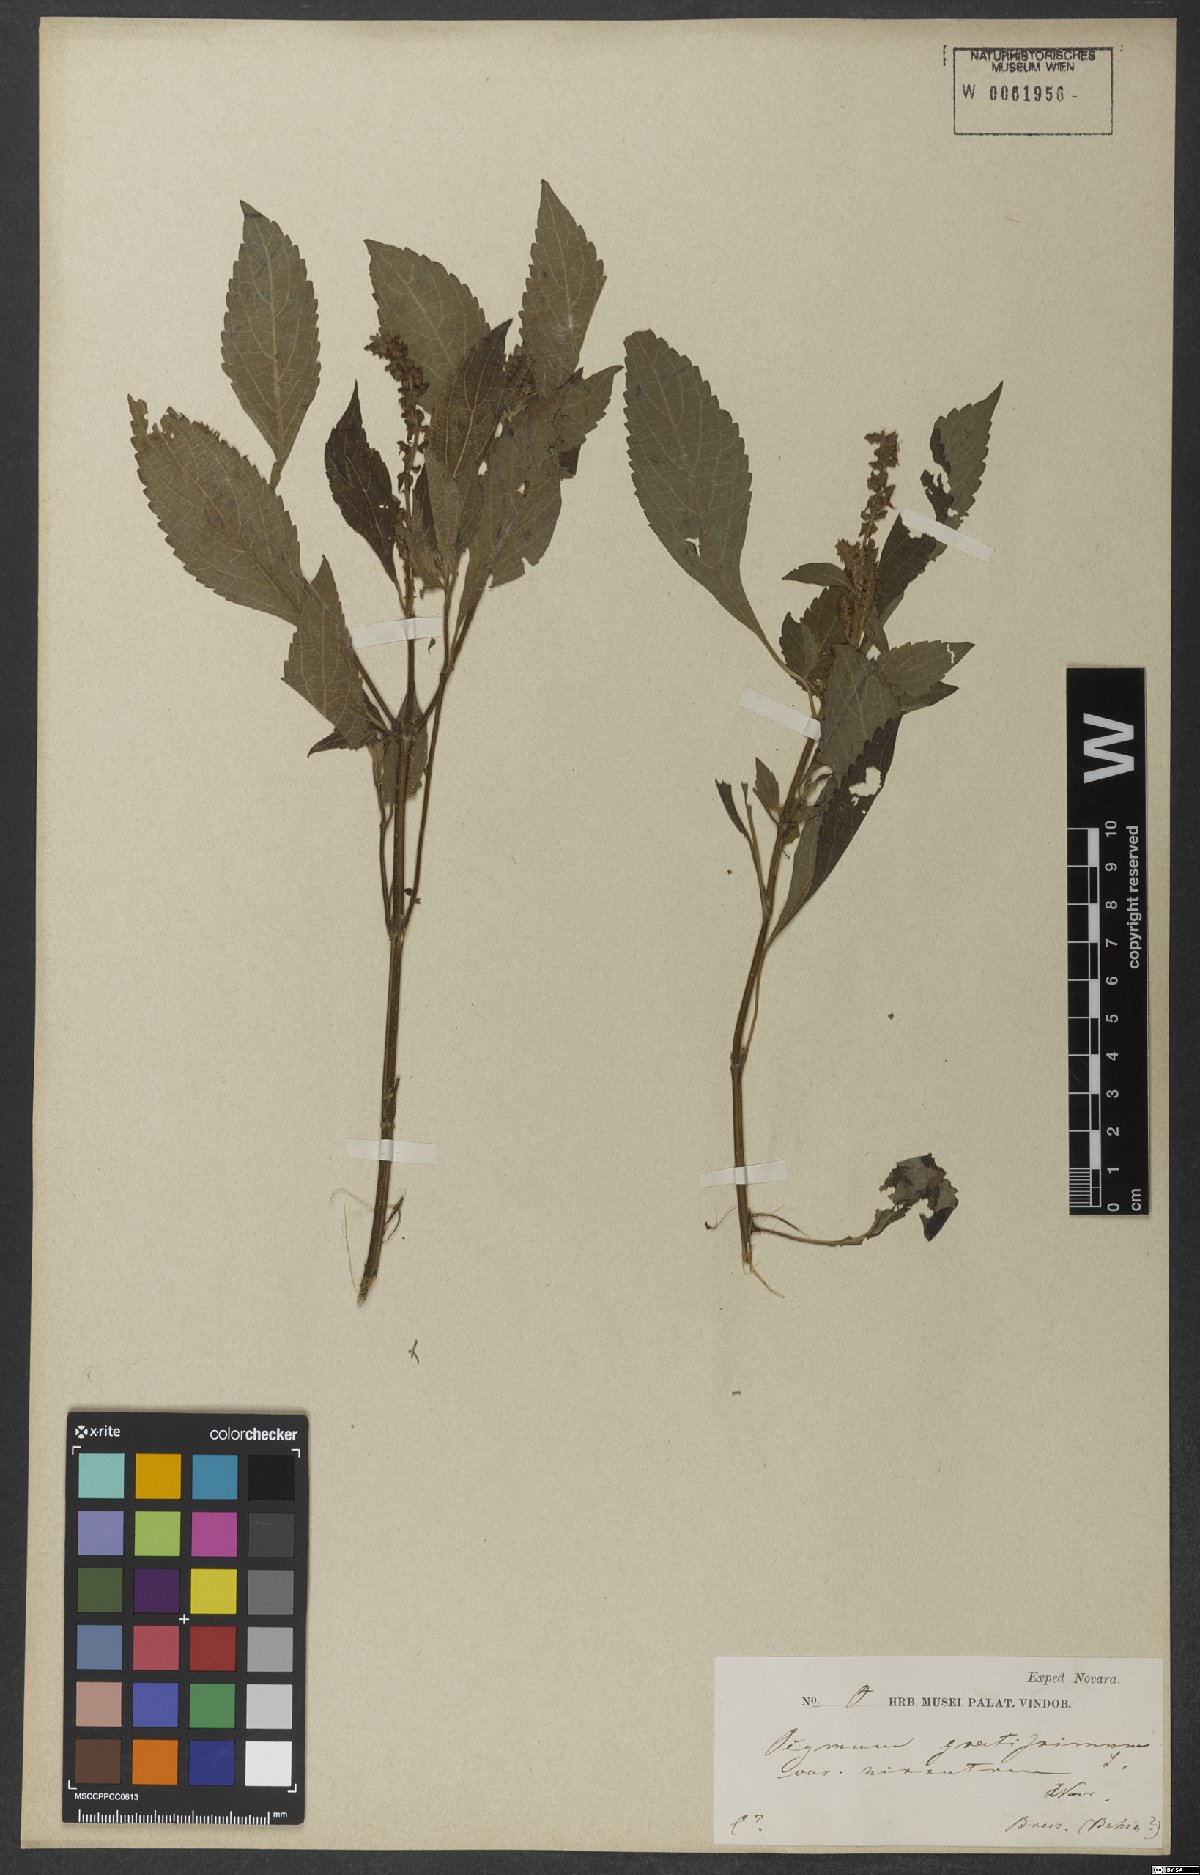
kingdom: Plantae
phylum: Tracheophyta
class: Magnoliopsida
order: Lamiales
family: Lamiaceae
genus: Ocimum
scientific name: Ocimum gratissimum
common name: African basil
